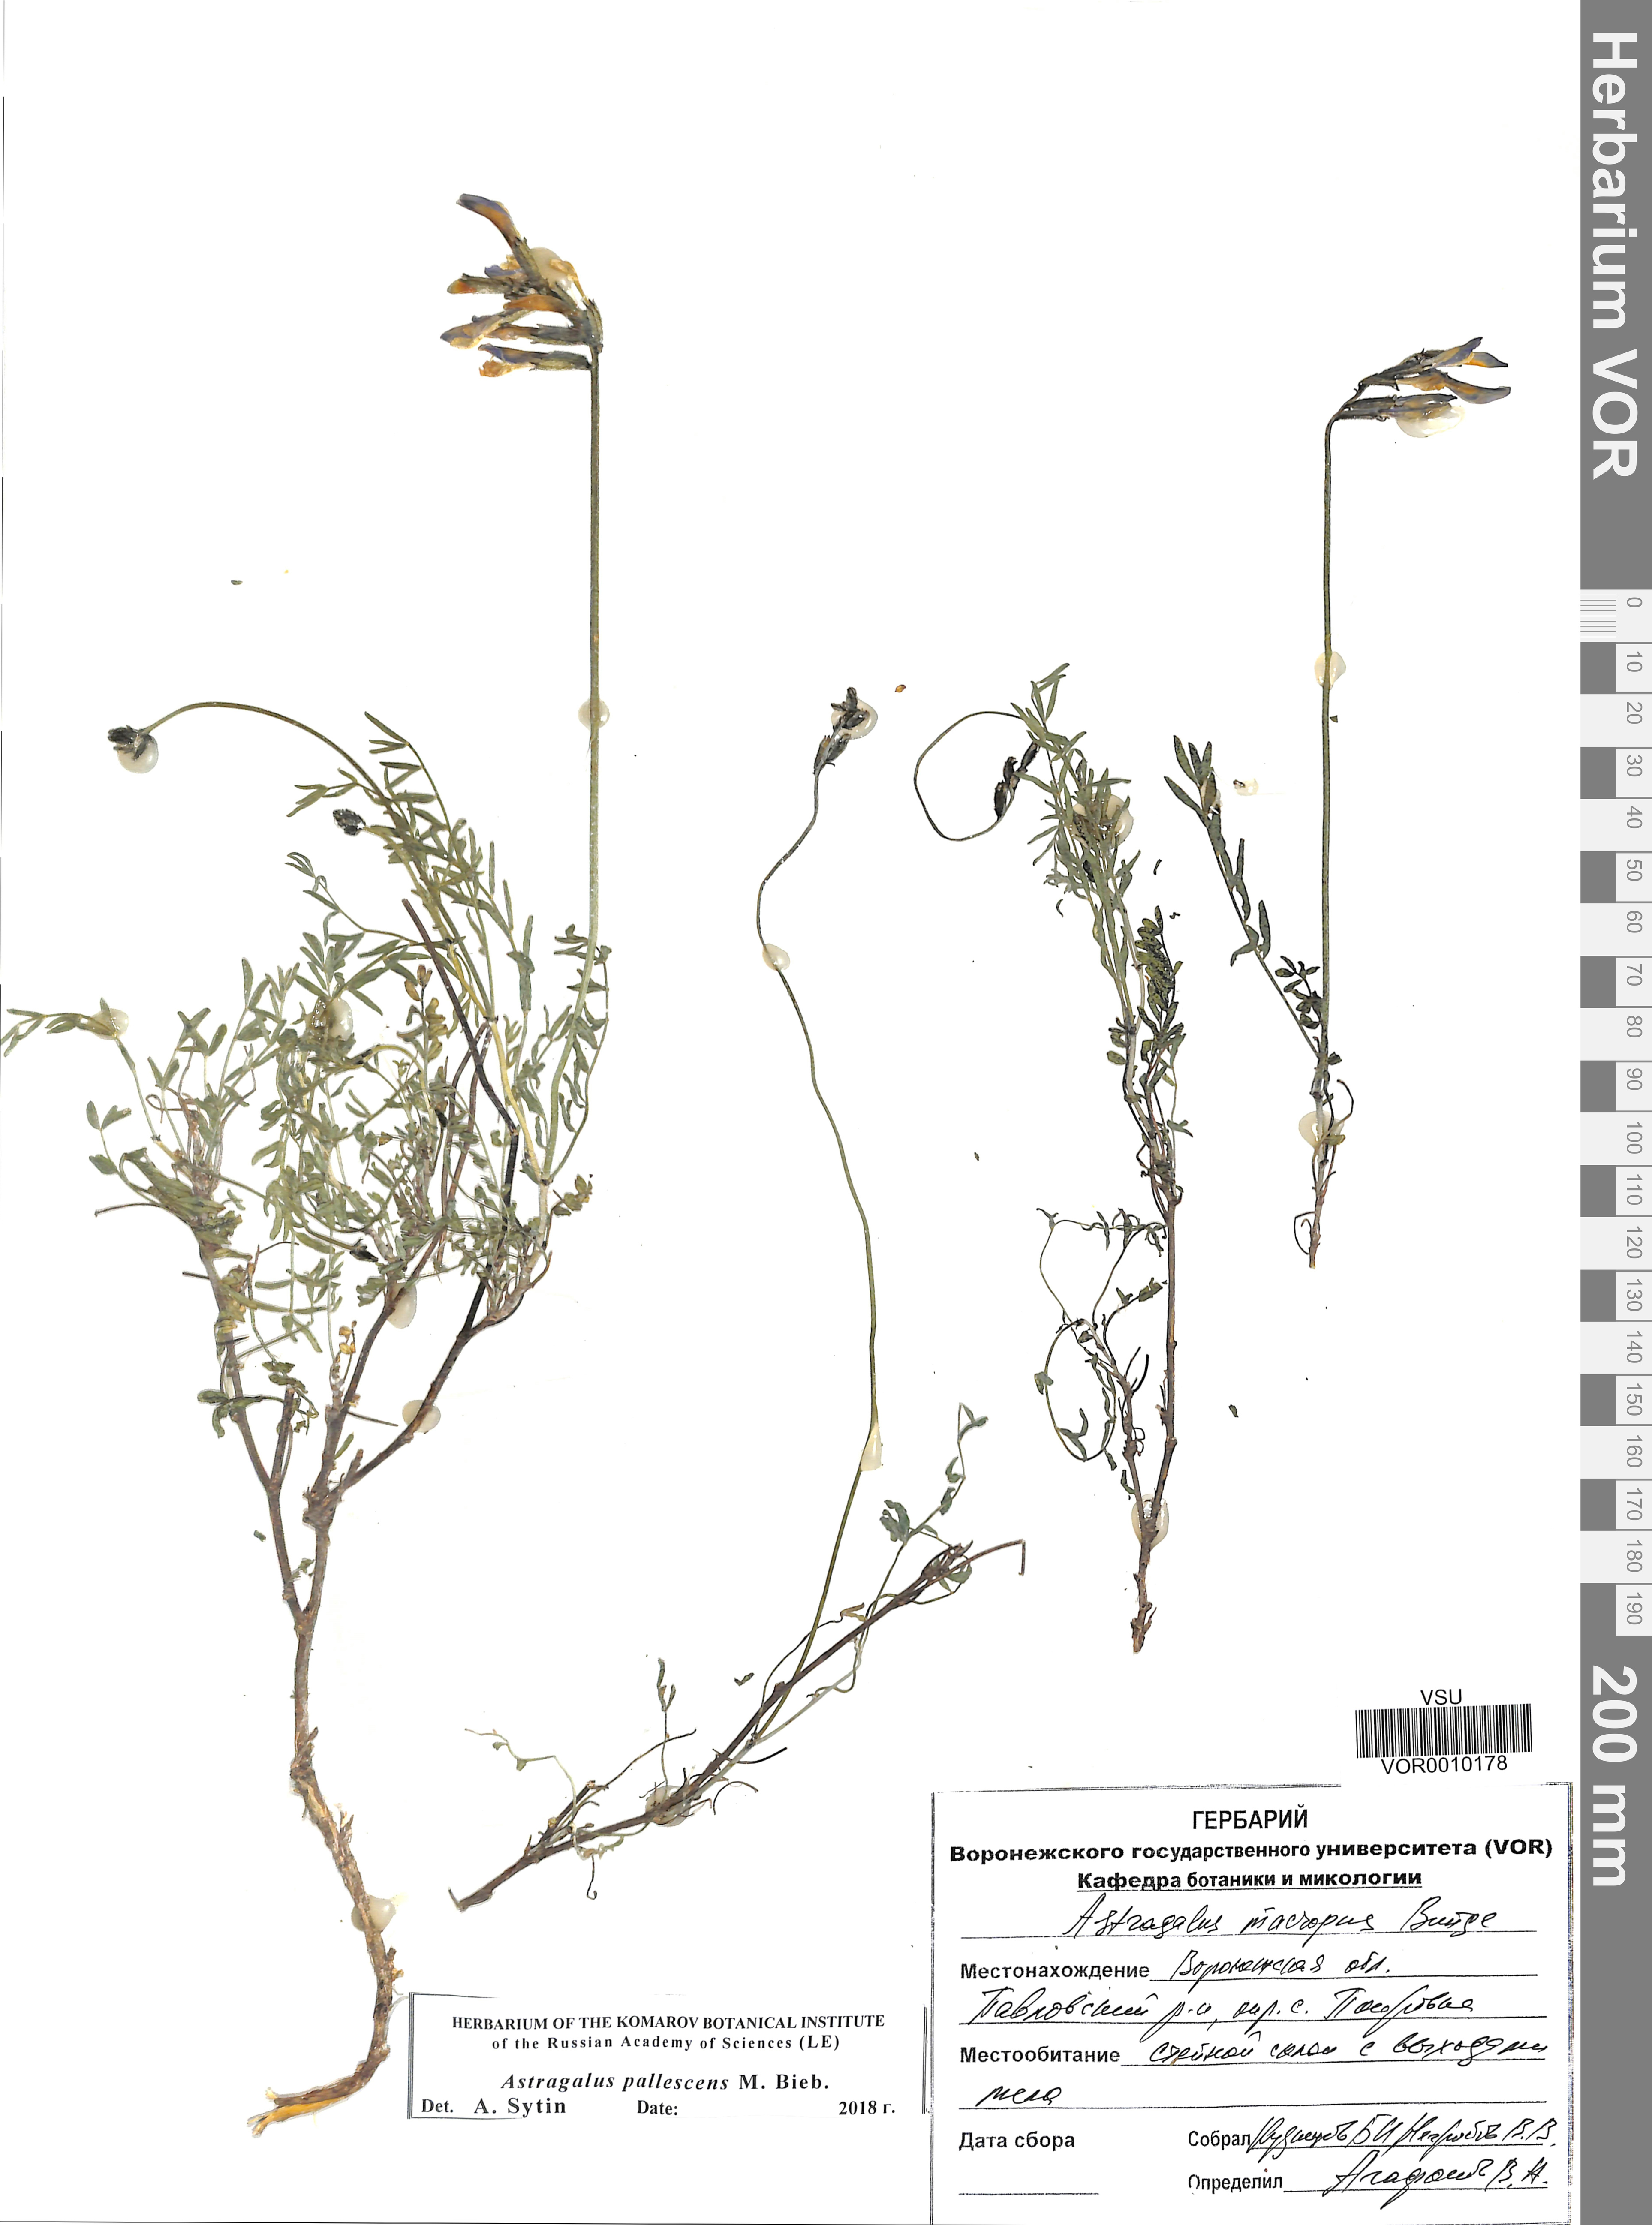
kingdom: Plantae
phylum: Tracheophyta
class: Magnoliopsida
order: Fabales
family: Fabaceae
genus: Astragalus
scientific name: Astragalus pallescens
